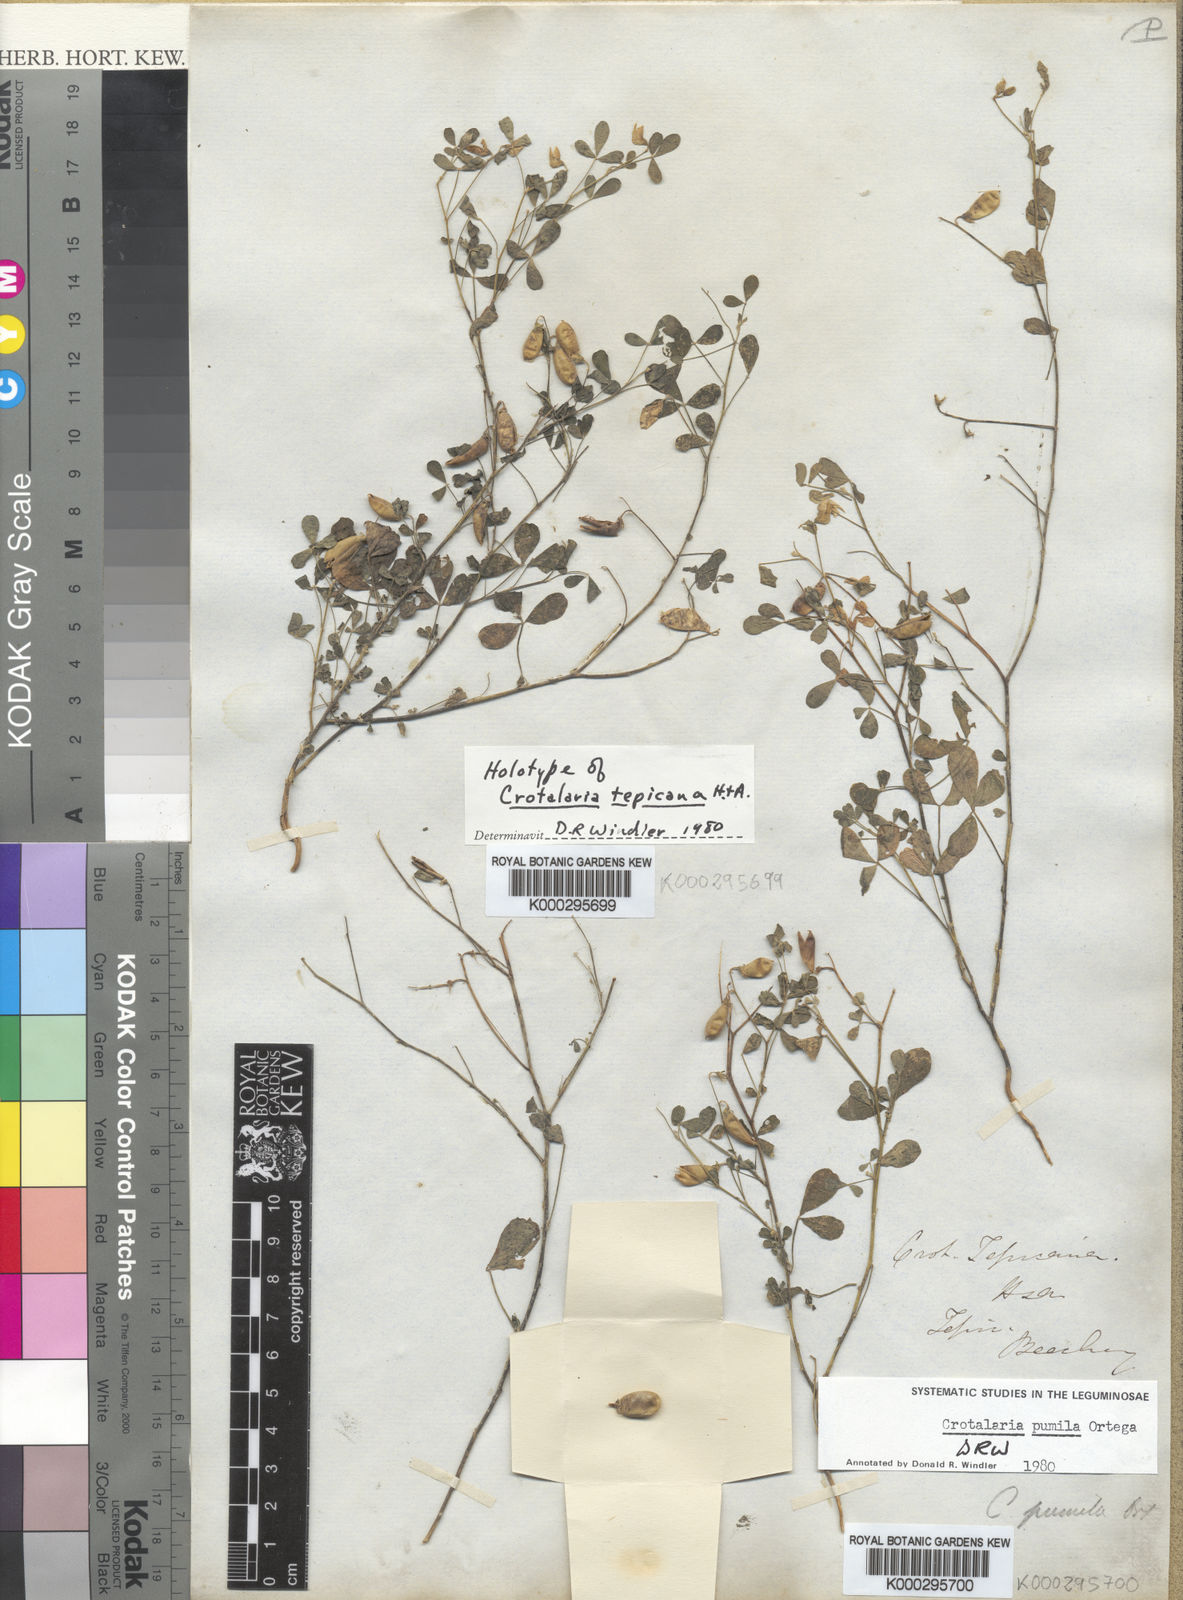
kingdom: Plantae
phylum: Tracheophyta
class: Magnoliopsida
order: Fabales
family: Fabaceae
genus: Crotalaria
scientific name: Crotalaria pumila
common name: Low rattlebox
